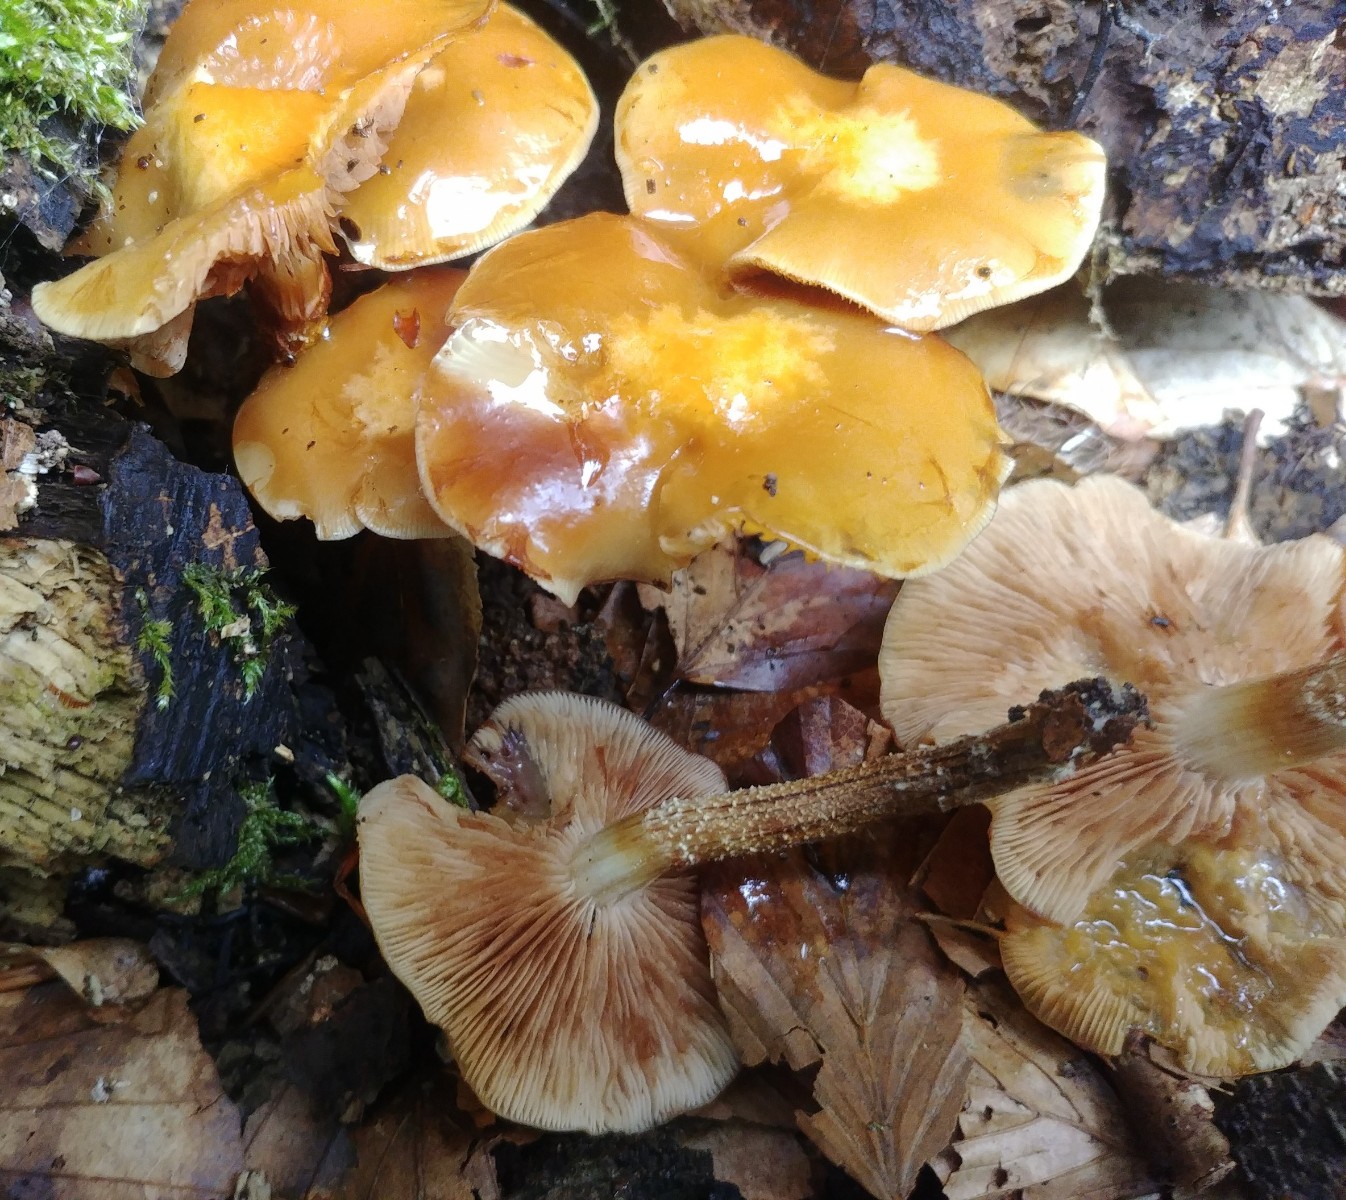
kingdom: Fungi
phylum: Basidiomycota
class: Agaricomycetes
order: Agaricales
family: Strophariaceae
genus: Kuehneromyces
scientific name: Kuehneromyces mutabilis
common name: foranderlig skælhat
